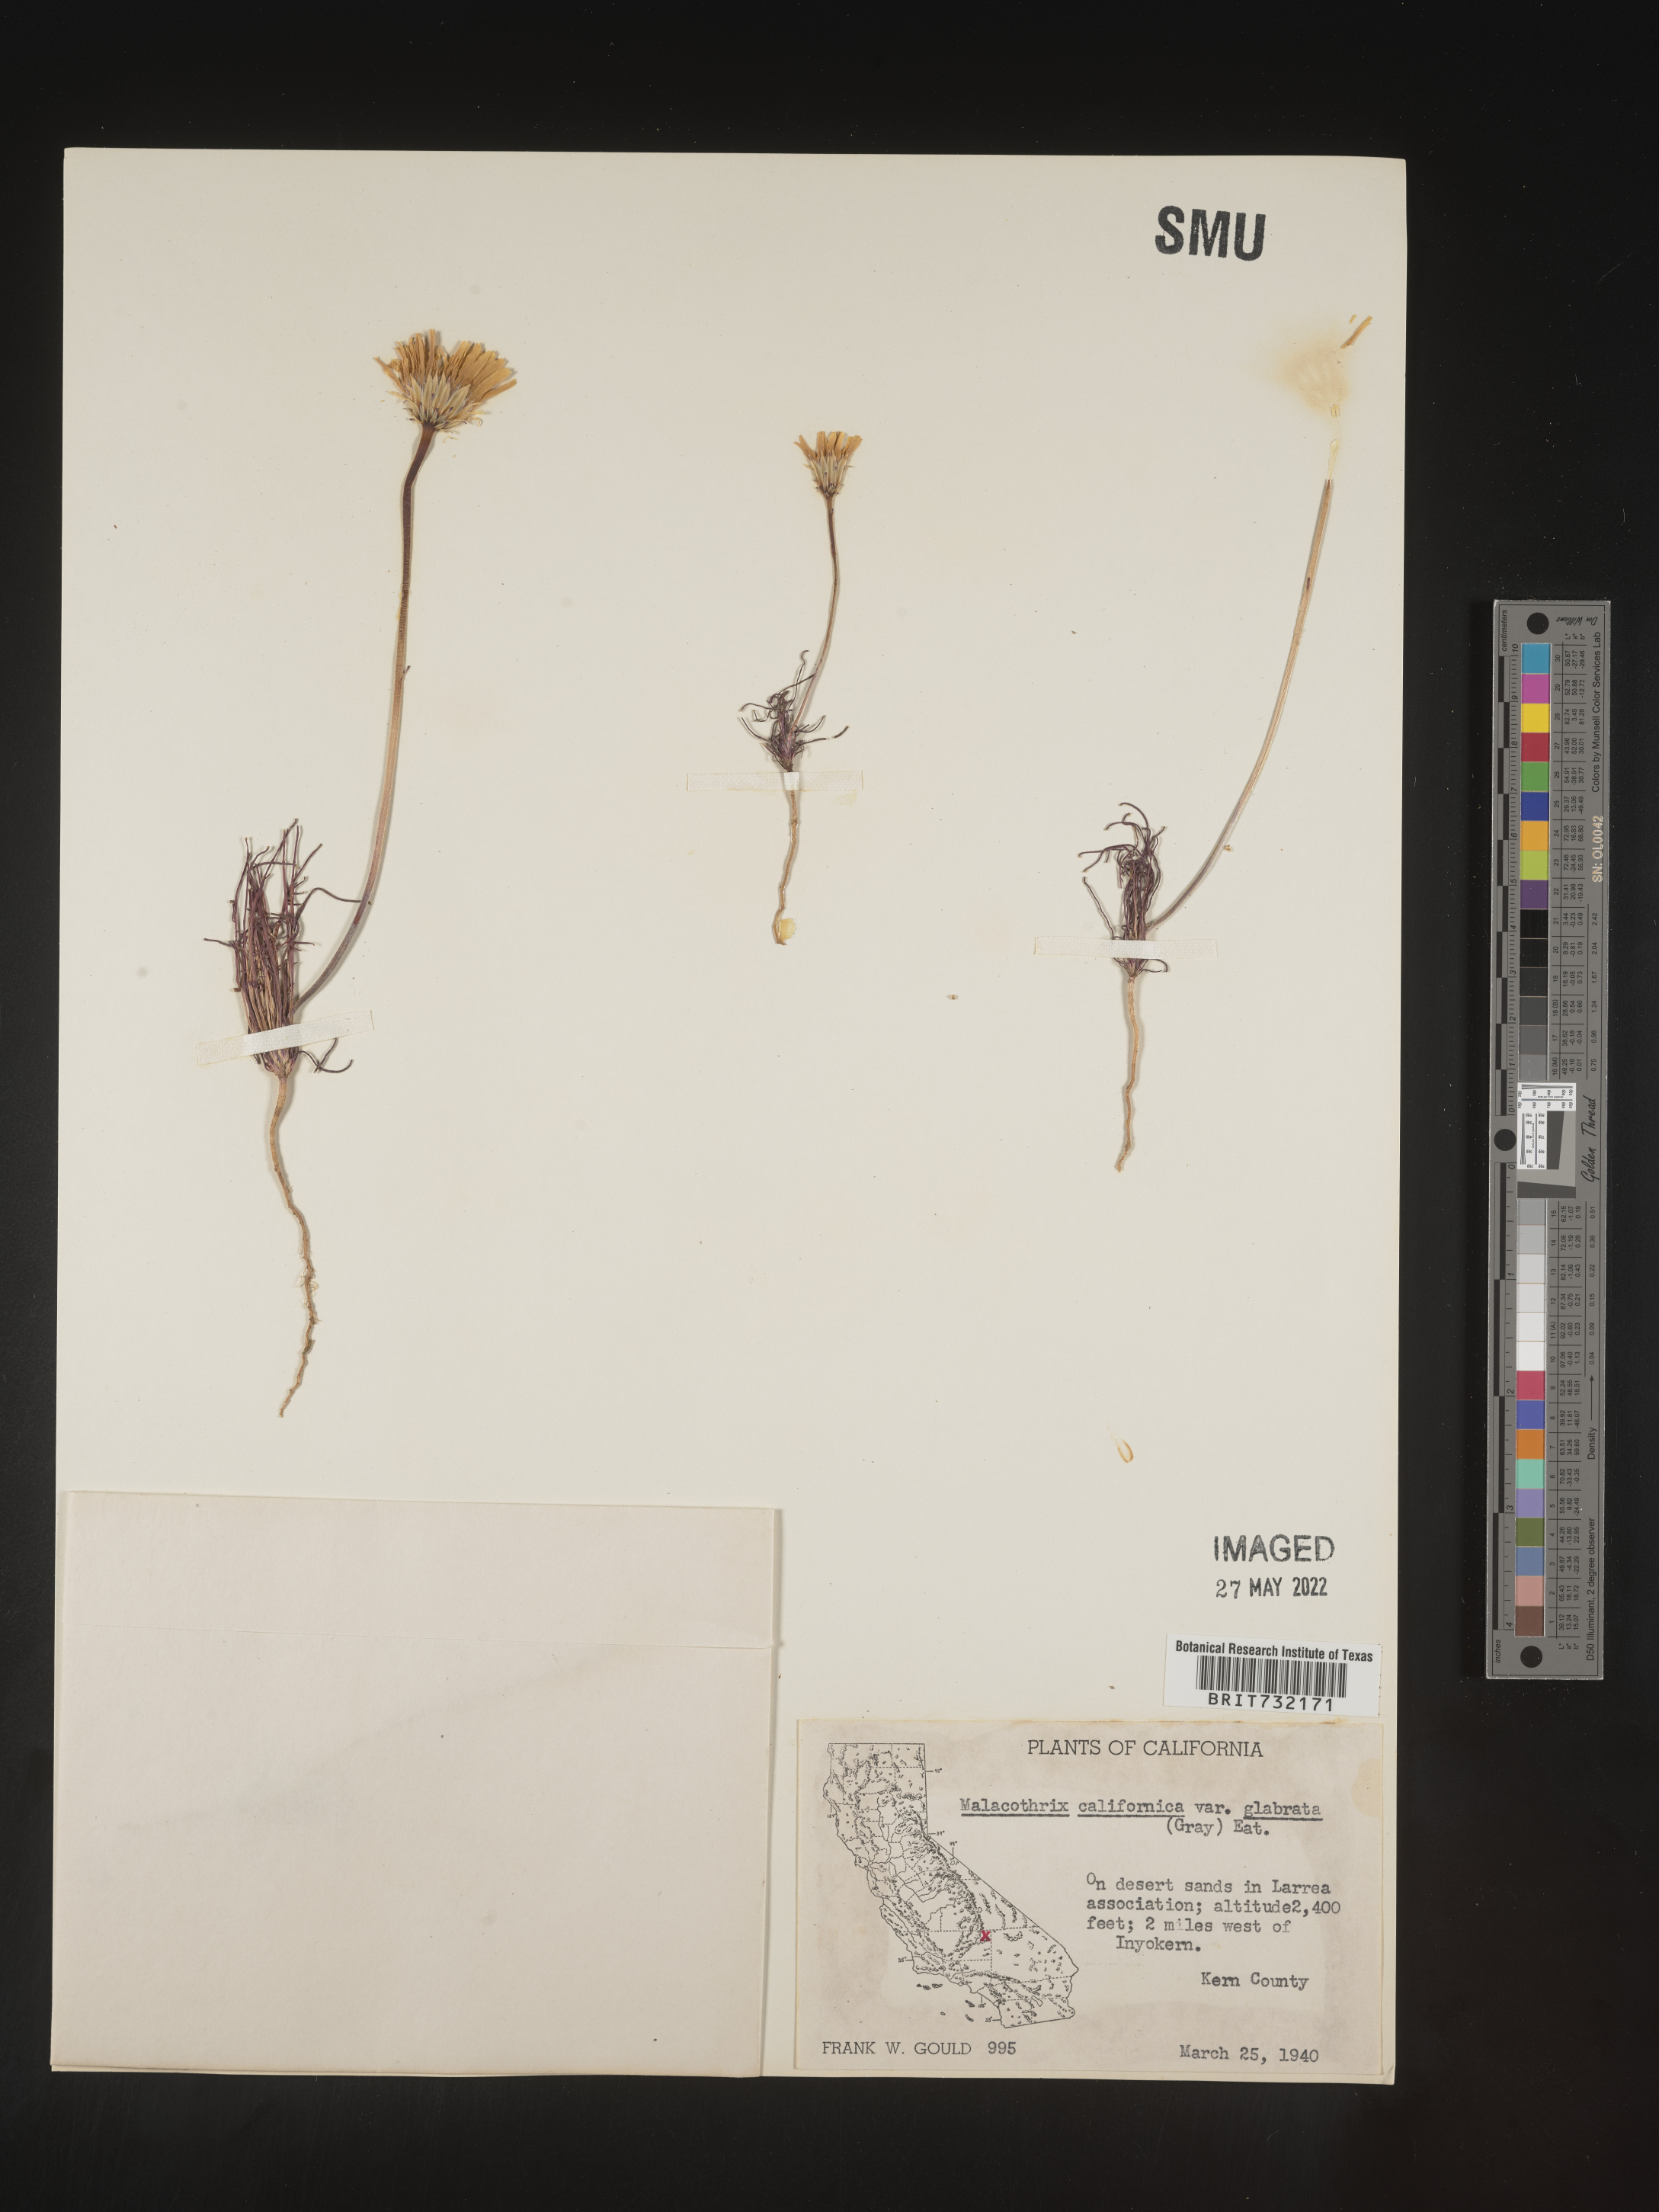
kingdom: Plantae
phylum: Tracheophyta
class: Magnoliopsida
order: Asterales
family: Asteraceae
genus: Malacothrix
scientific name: Malacothrix
